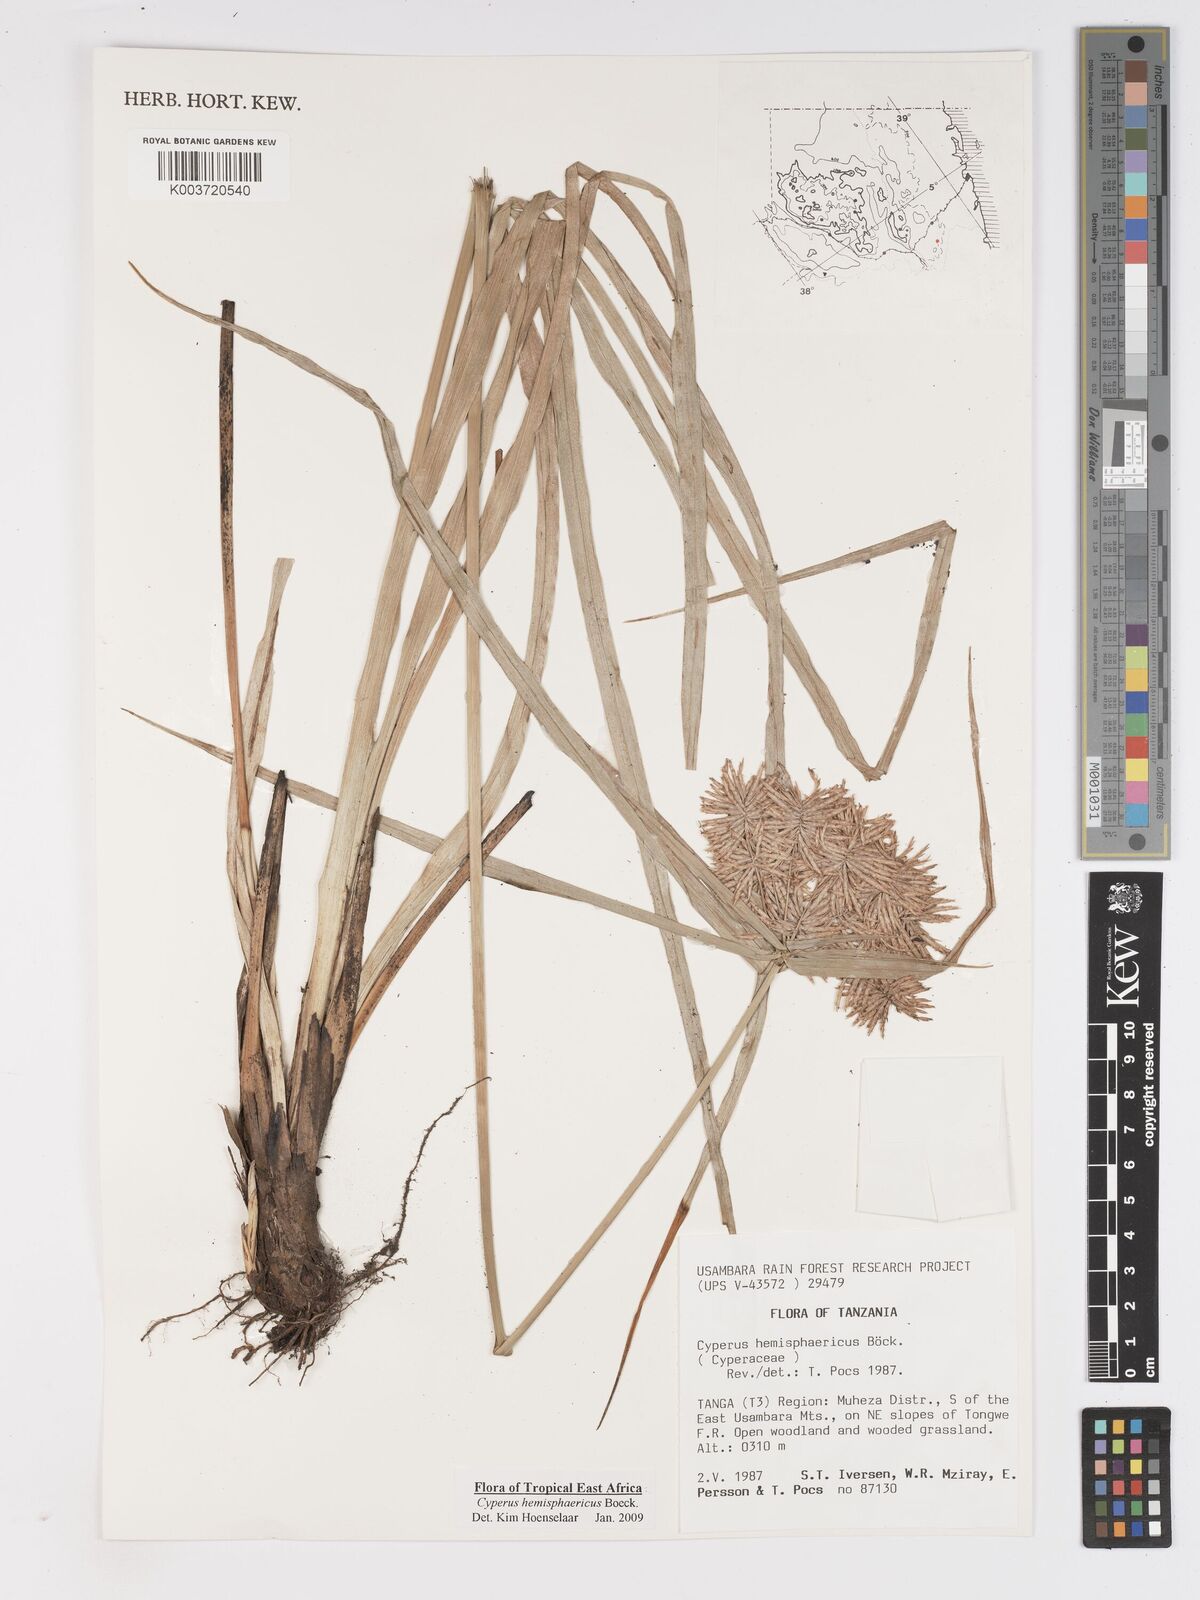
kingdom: Plantae
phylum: Tracheophyta
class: Liliopsida
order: Poales
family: Cyperaceae
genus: Cyperus
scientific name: Cyperus hemisphaericus
